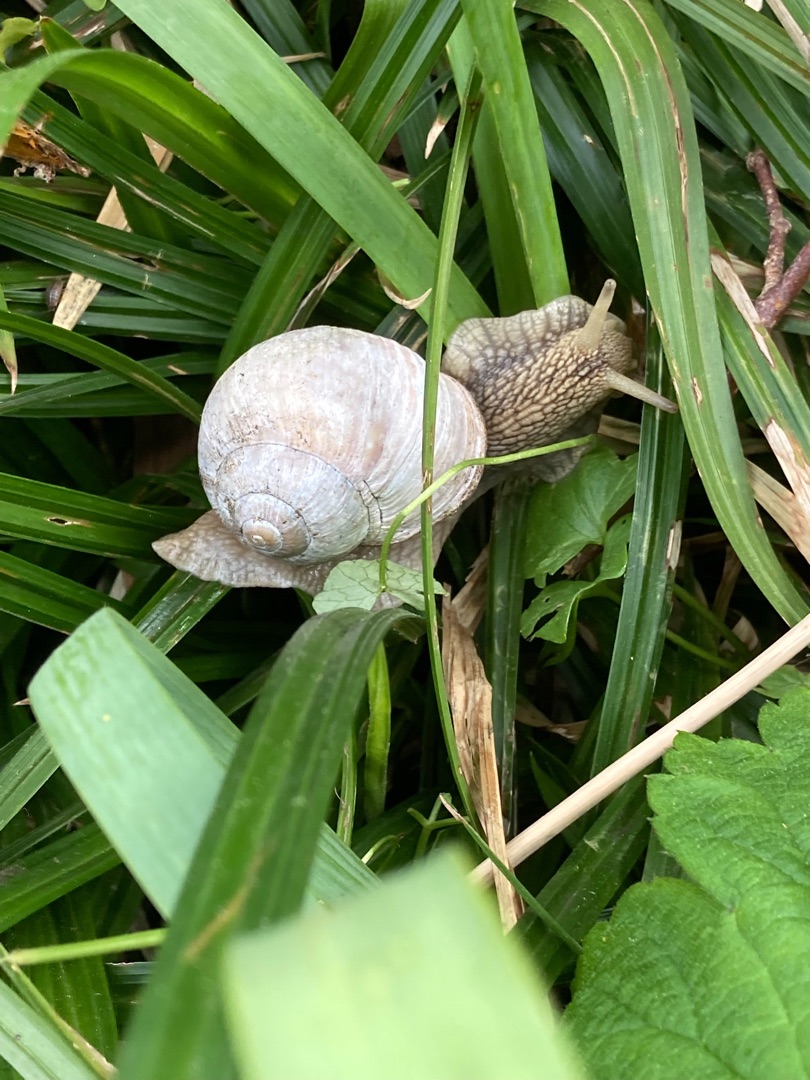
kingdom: Animalia
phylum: Mollusca
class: Gastropoda
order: Stylommatophora
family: Helicidae
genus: Helix
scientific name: Helix pomatia
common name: Vinbjergsnegl
